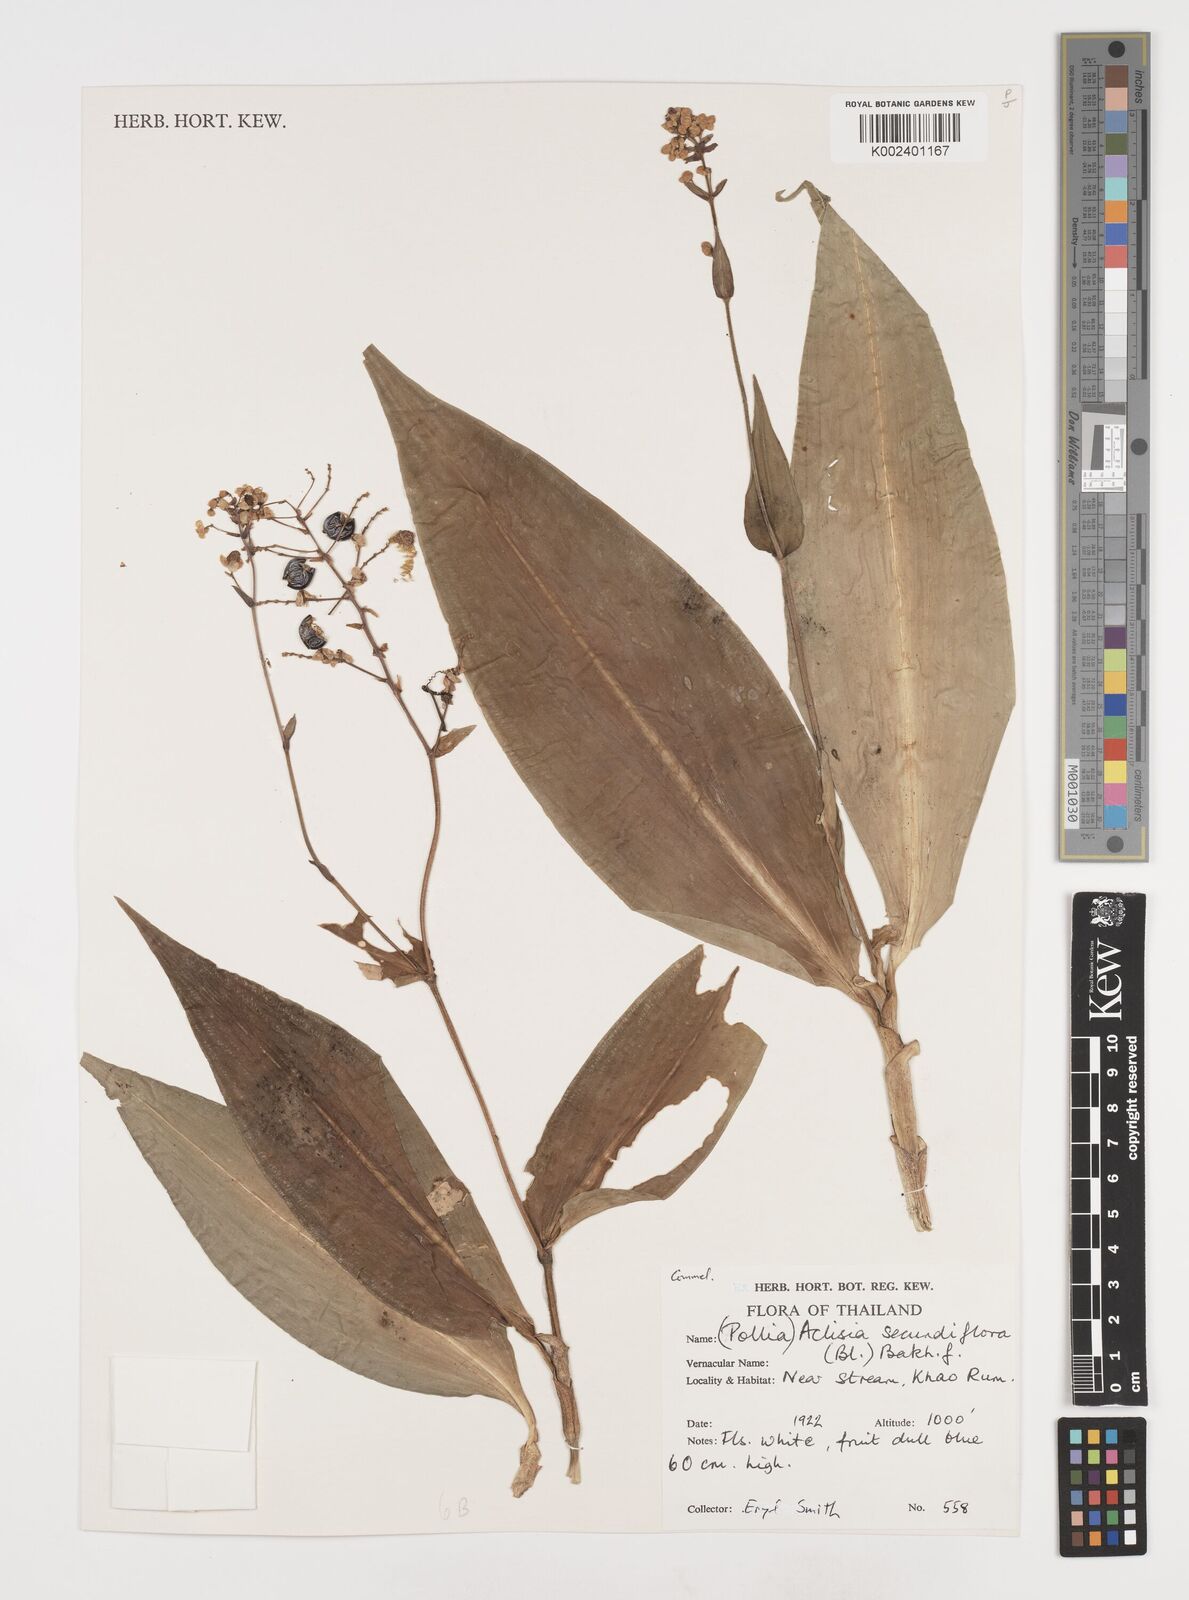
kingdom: Plantae
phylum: Tracheophyta
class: Liliopsida
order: Commelinales
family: Commelinaceae
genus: Pollia
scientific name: Pollia secundiflora
